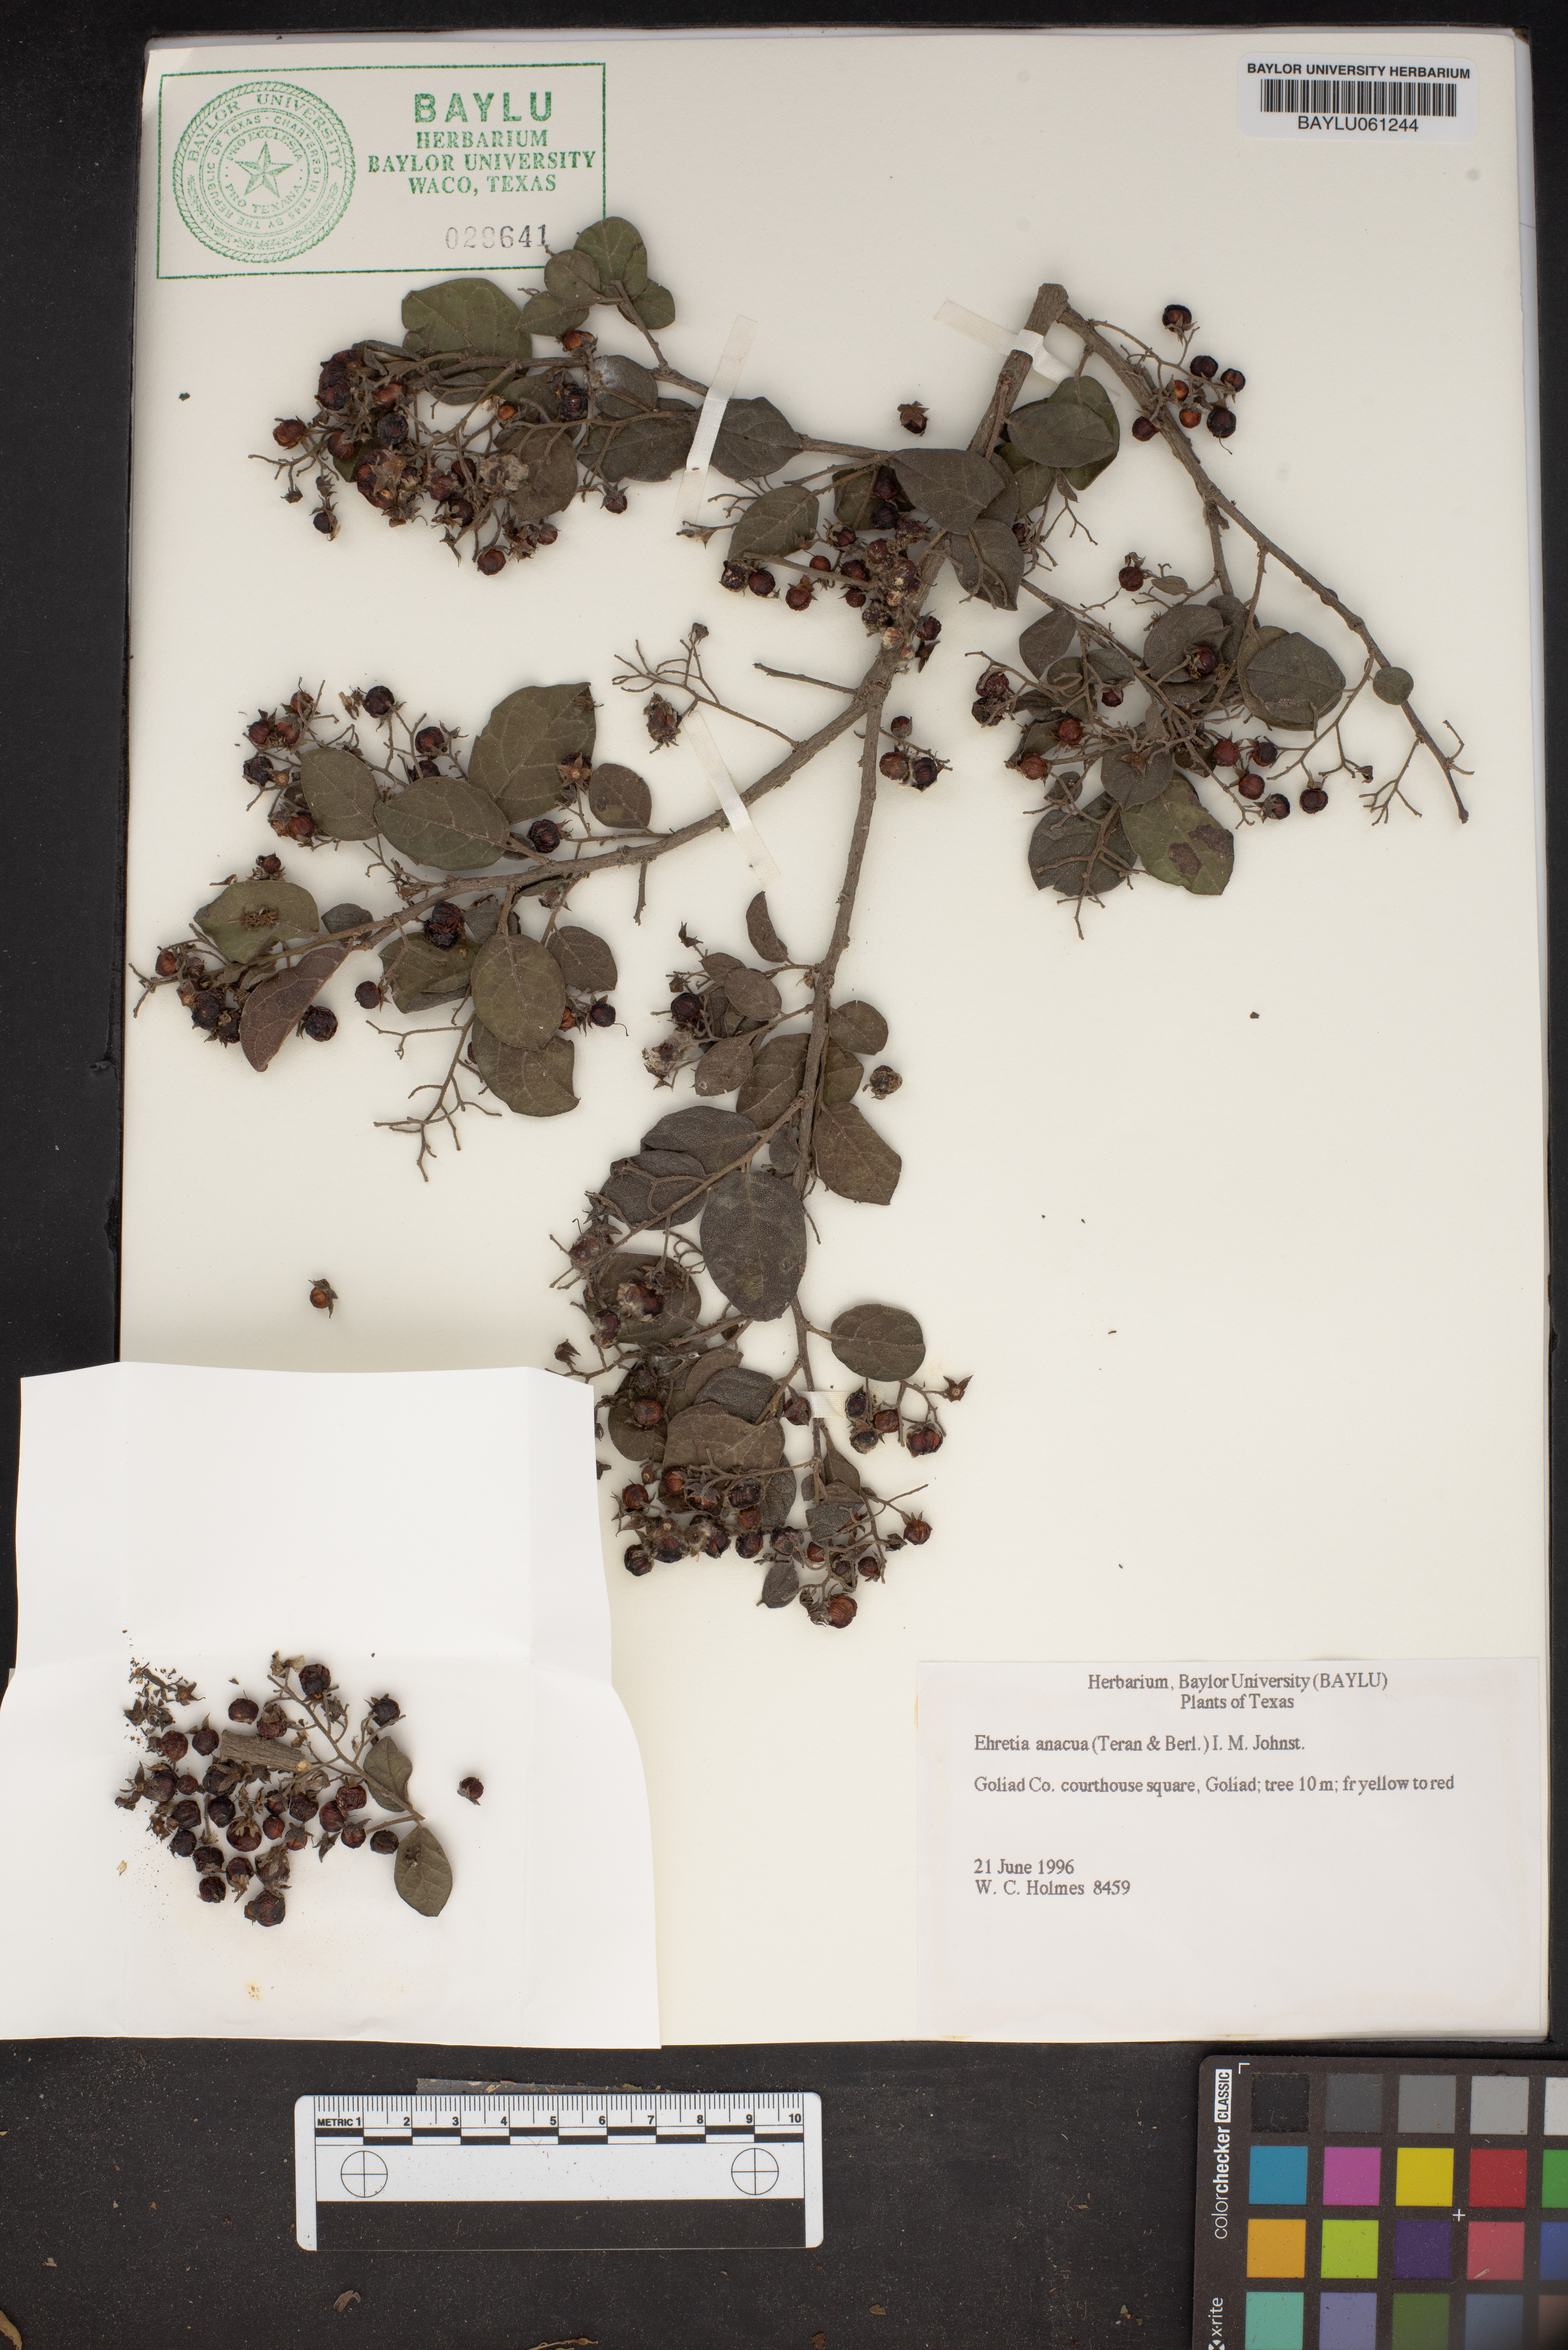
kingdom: Plantae
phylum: Tracheophyta
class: Magnoliopsida
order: Boraginales
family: Ehretiaceae
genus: Ehretia
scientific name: Ehretia anacua
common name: Sugarberry
